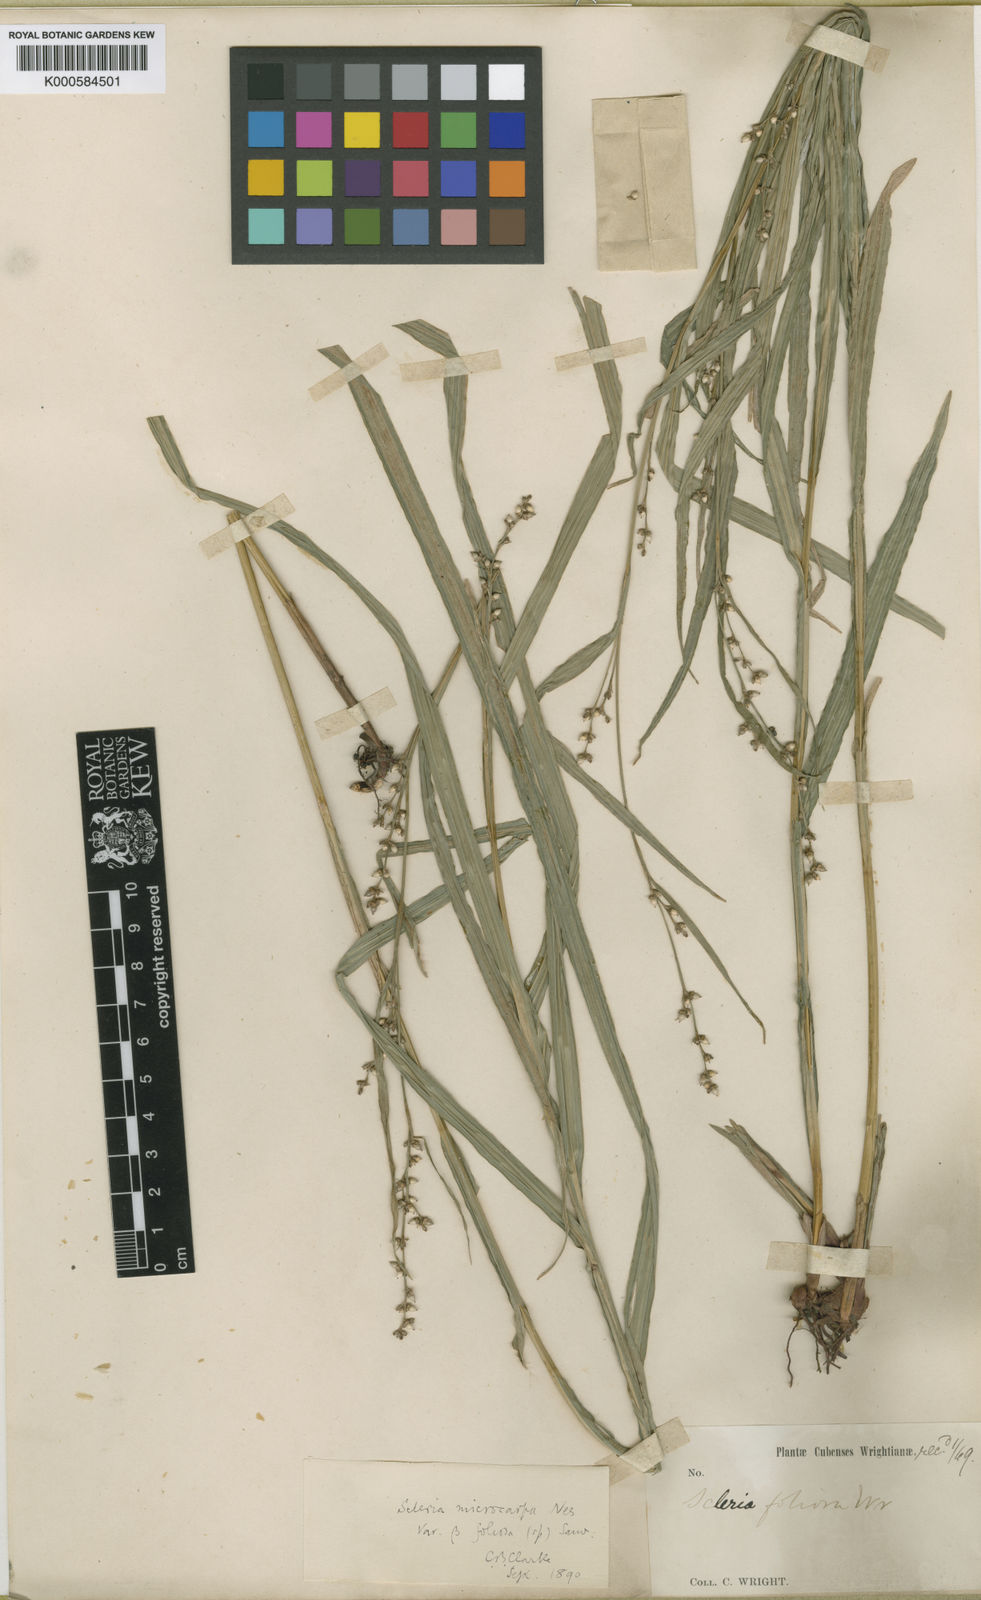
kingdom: Plantae
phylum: Tracheophyta
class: Liliopsida
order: Poales
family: Cyperaceae
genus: Scleria
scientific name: Scleria microcarpa
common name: Tropical nutrush
